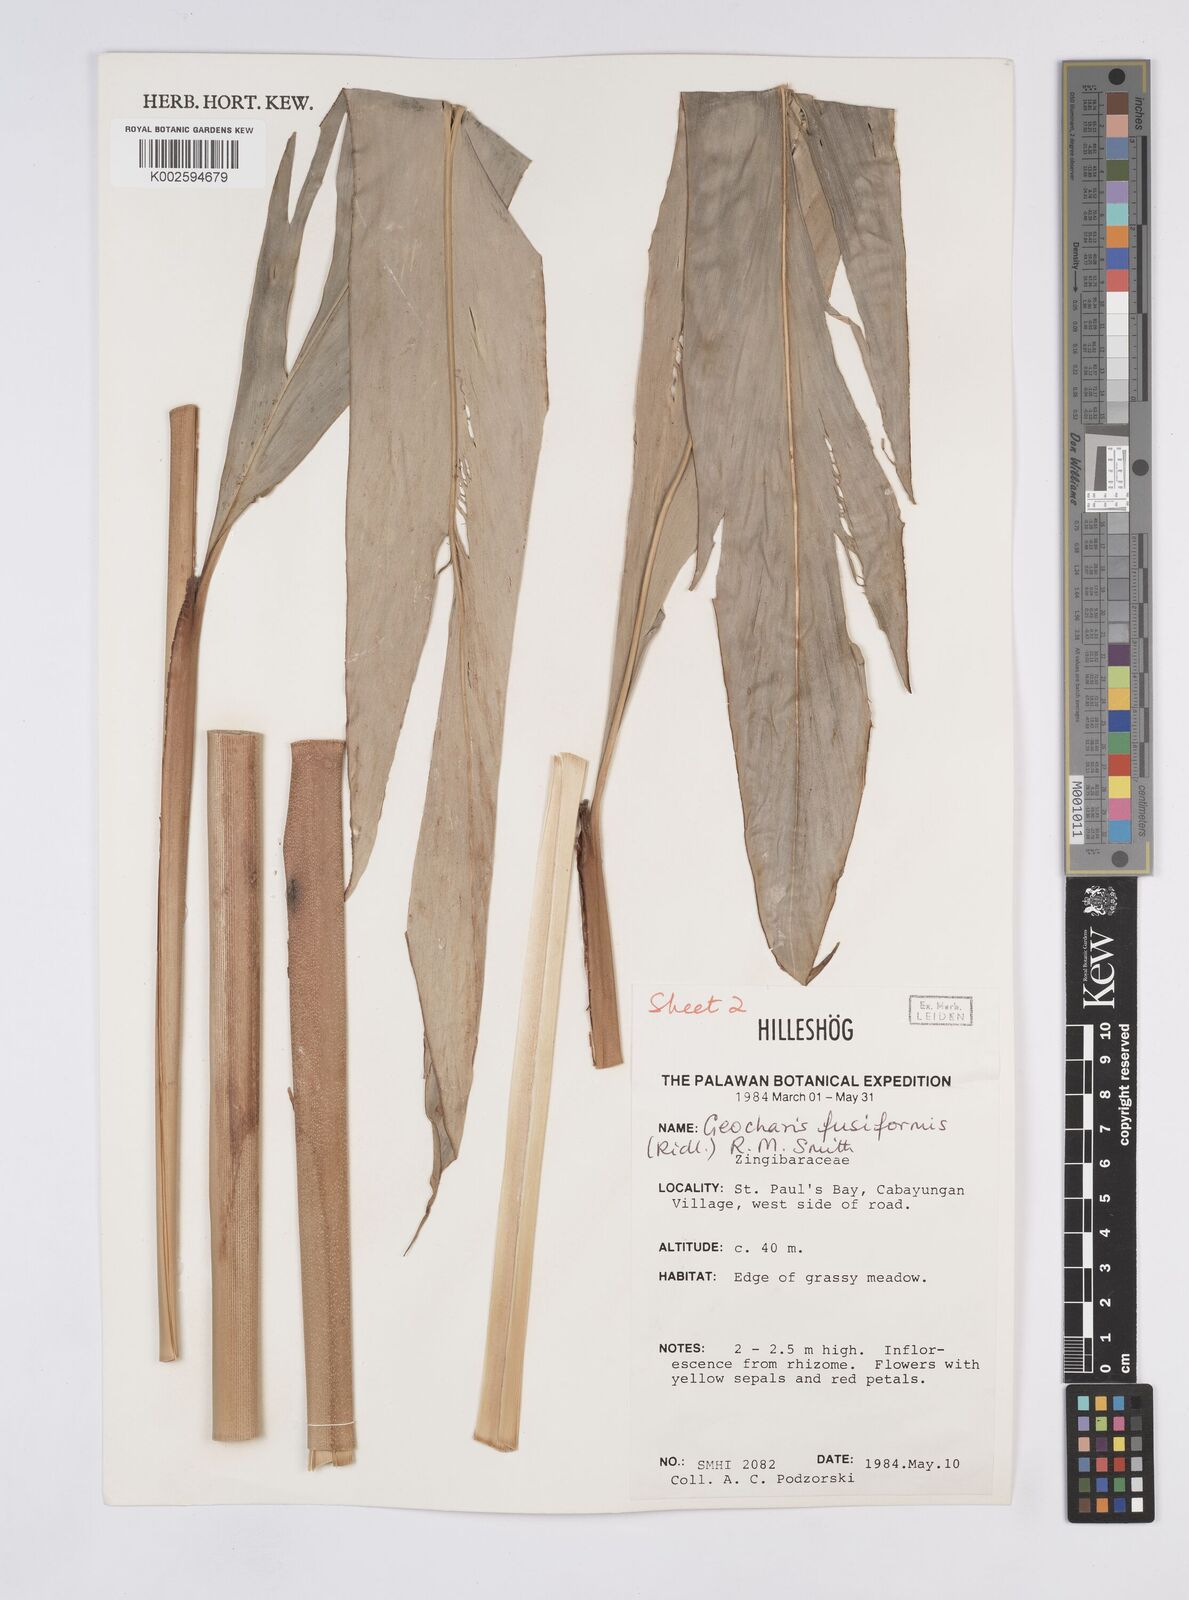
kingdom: Plantae
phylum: Tracheophyta
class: Liliopsida
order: Zingiberales
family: Zingiberaceae
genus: Geocharis
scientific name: Geocharis fusiformis
